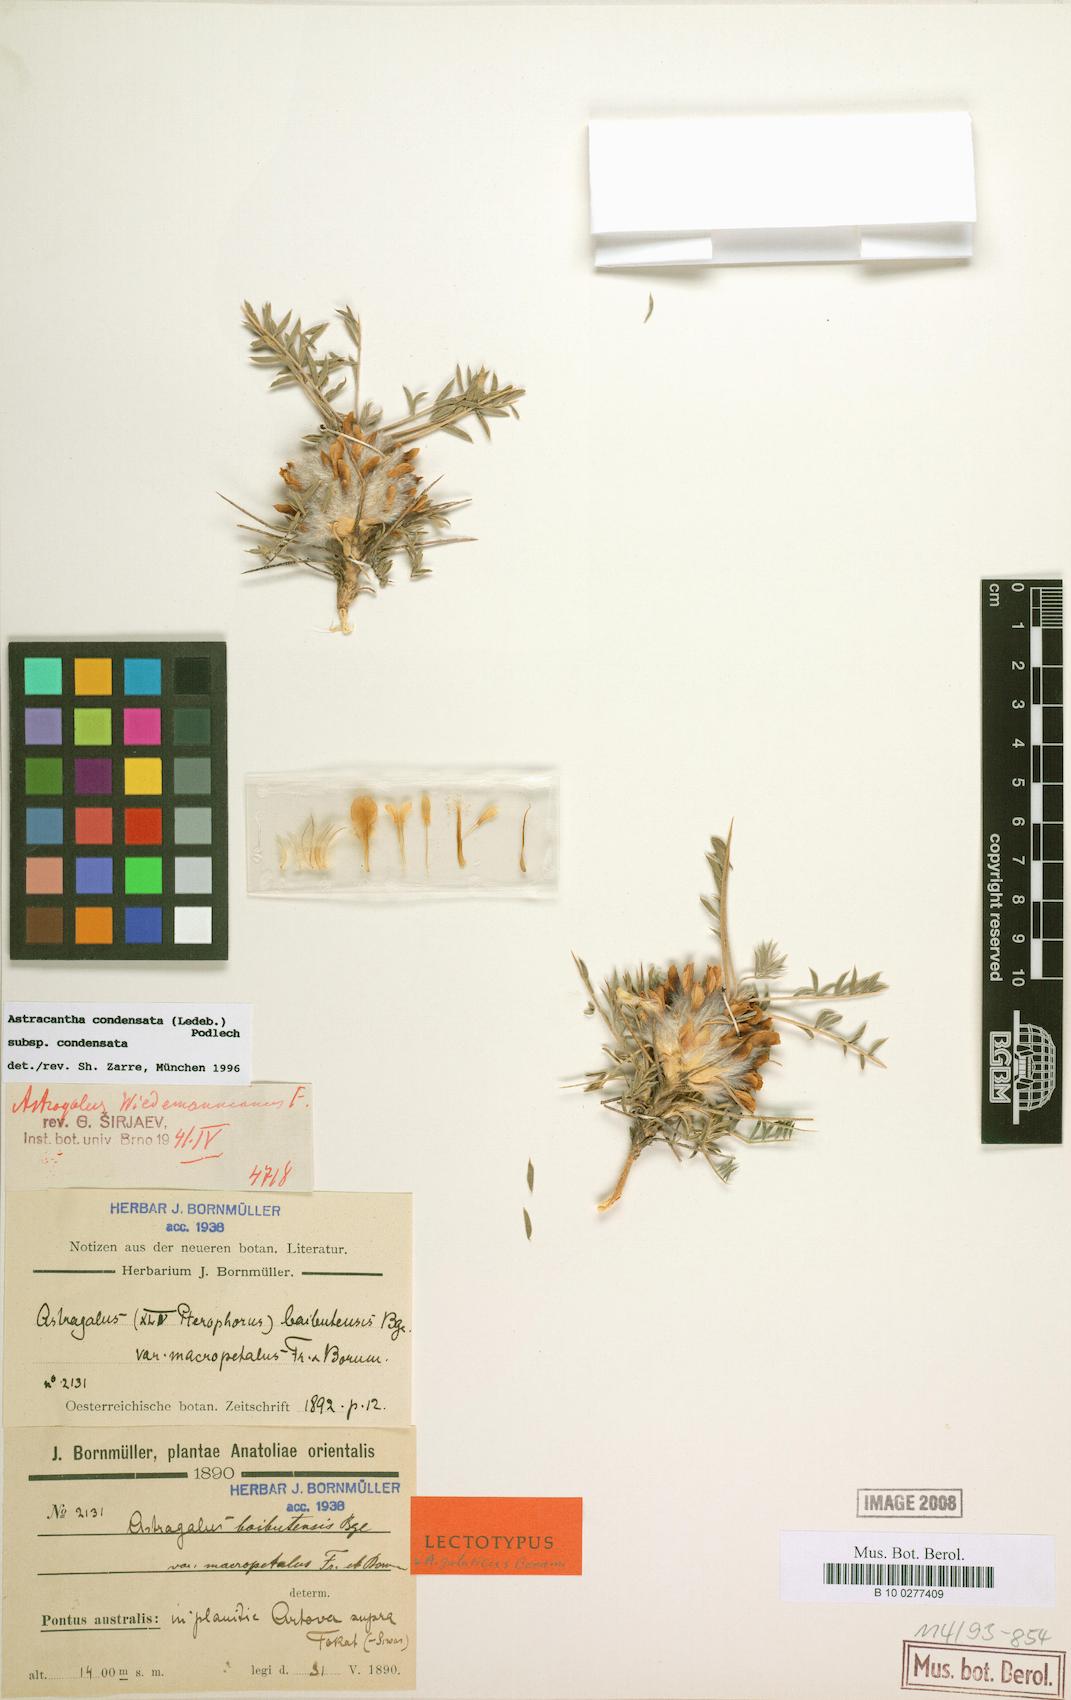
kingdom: Plantae
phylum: Tracheophyta
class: Magnoliopsida
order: Fabales
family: Fabaceae
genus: Astragalus
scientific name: Astragalus condensatus
